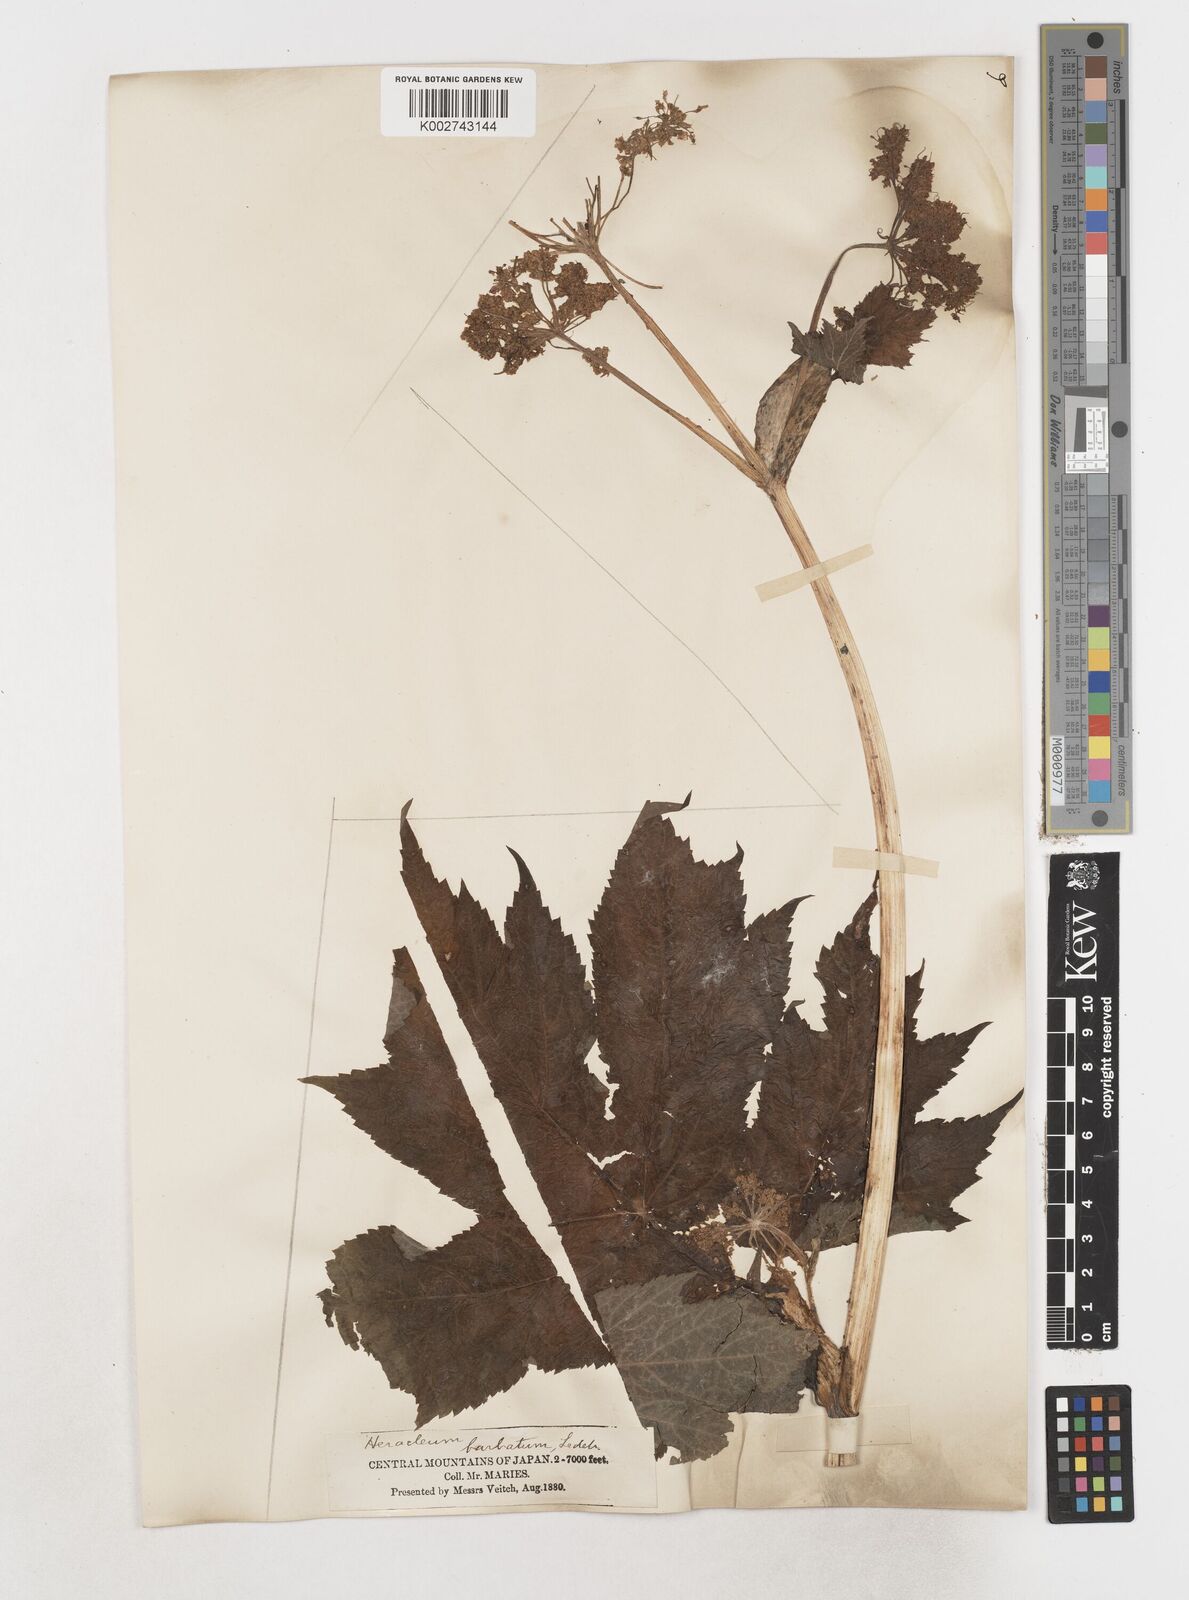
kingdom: Plantae
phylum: Tracheophyta
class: Magnoliopsida
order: Apiales
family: Apiaceae
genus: Heracleum
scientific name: Heracleum dissectum
